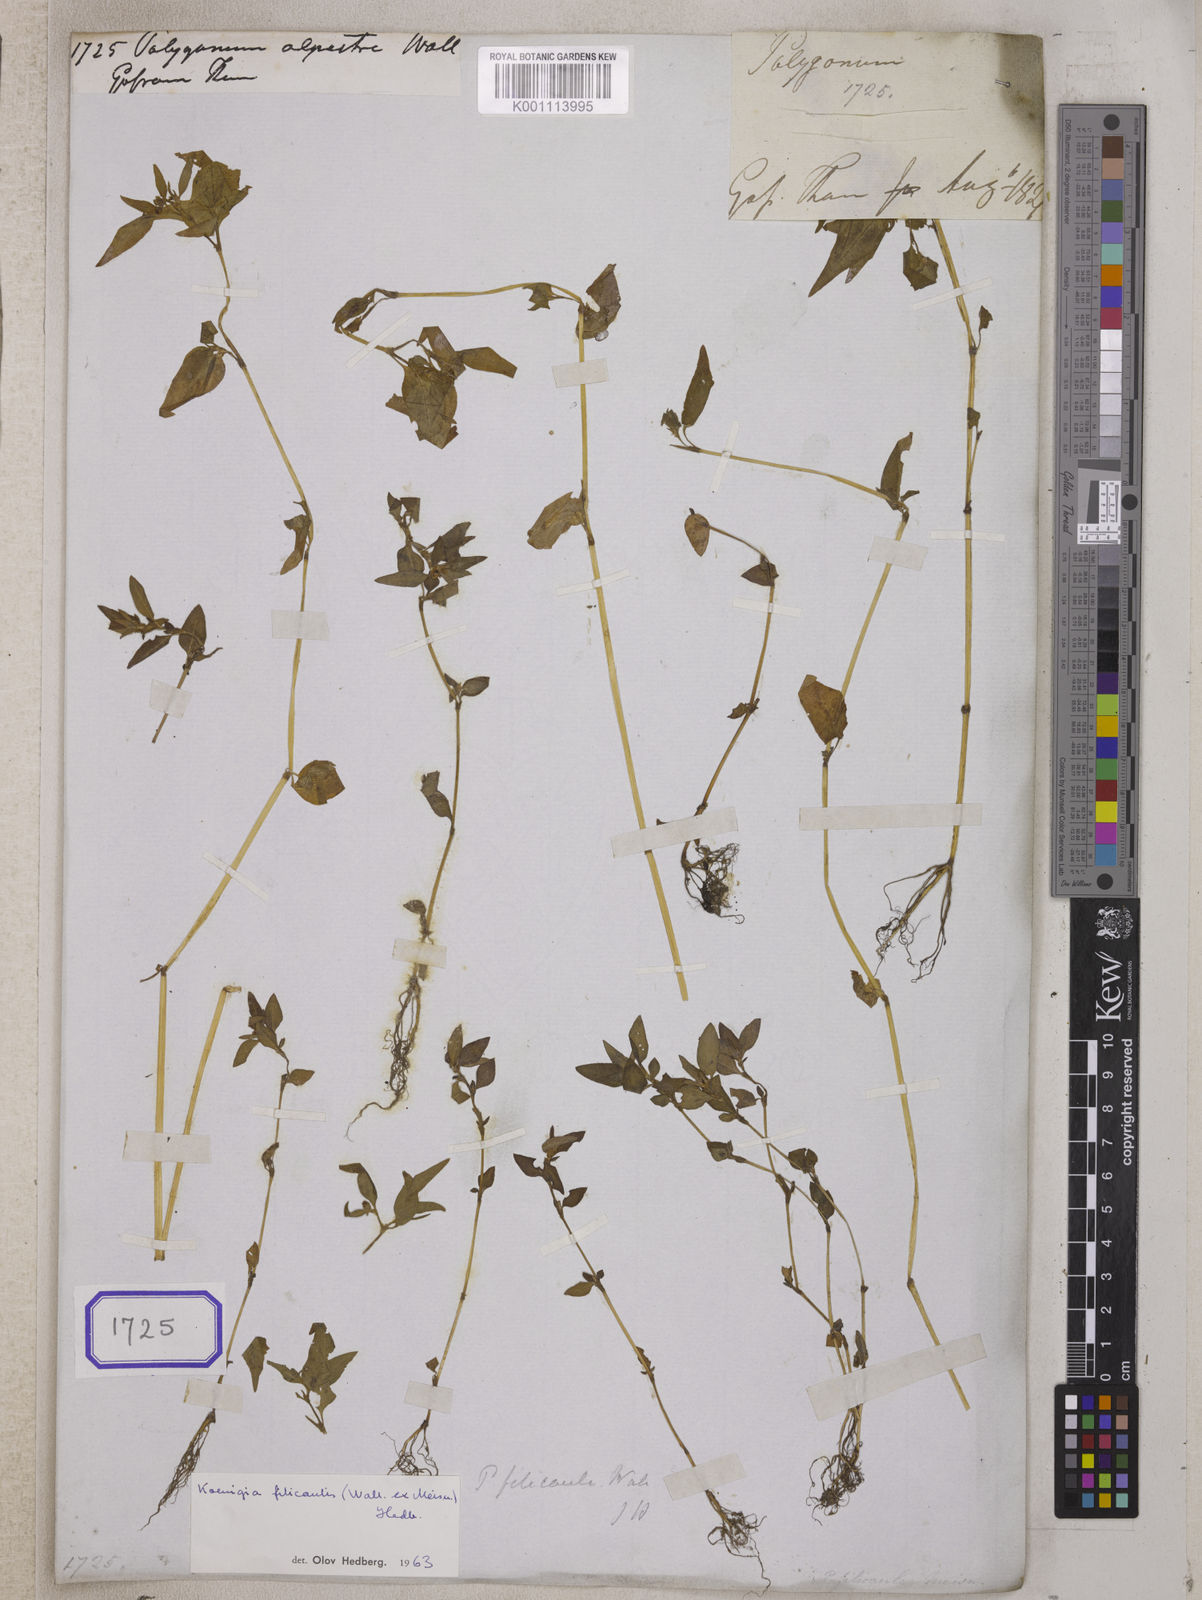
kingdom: Plantae
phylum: Tracheophyta
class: Magnoliopsida
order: Caryophyllales
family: Polygonaceae
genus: Koenigia
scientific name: Koenigia nepalensis
